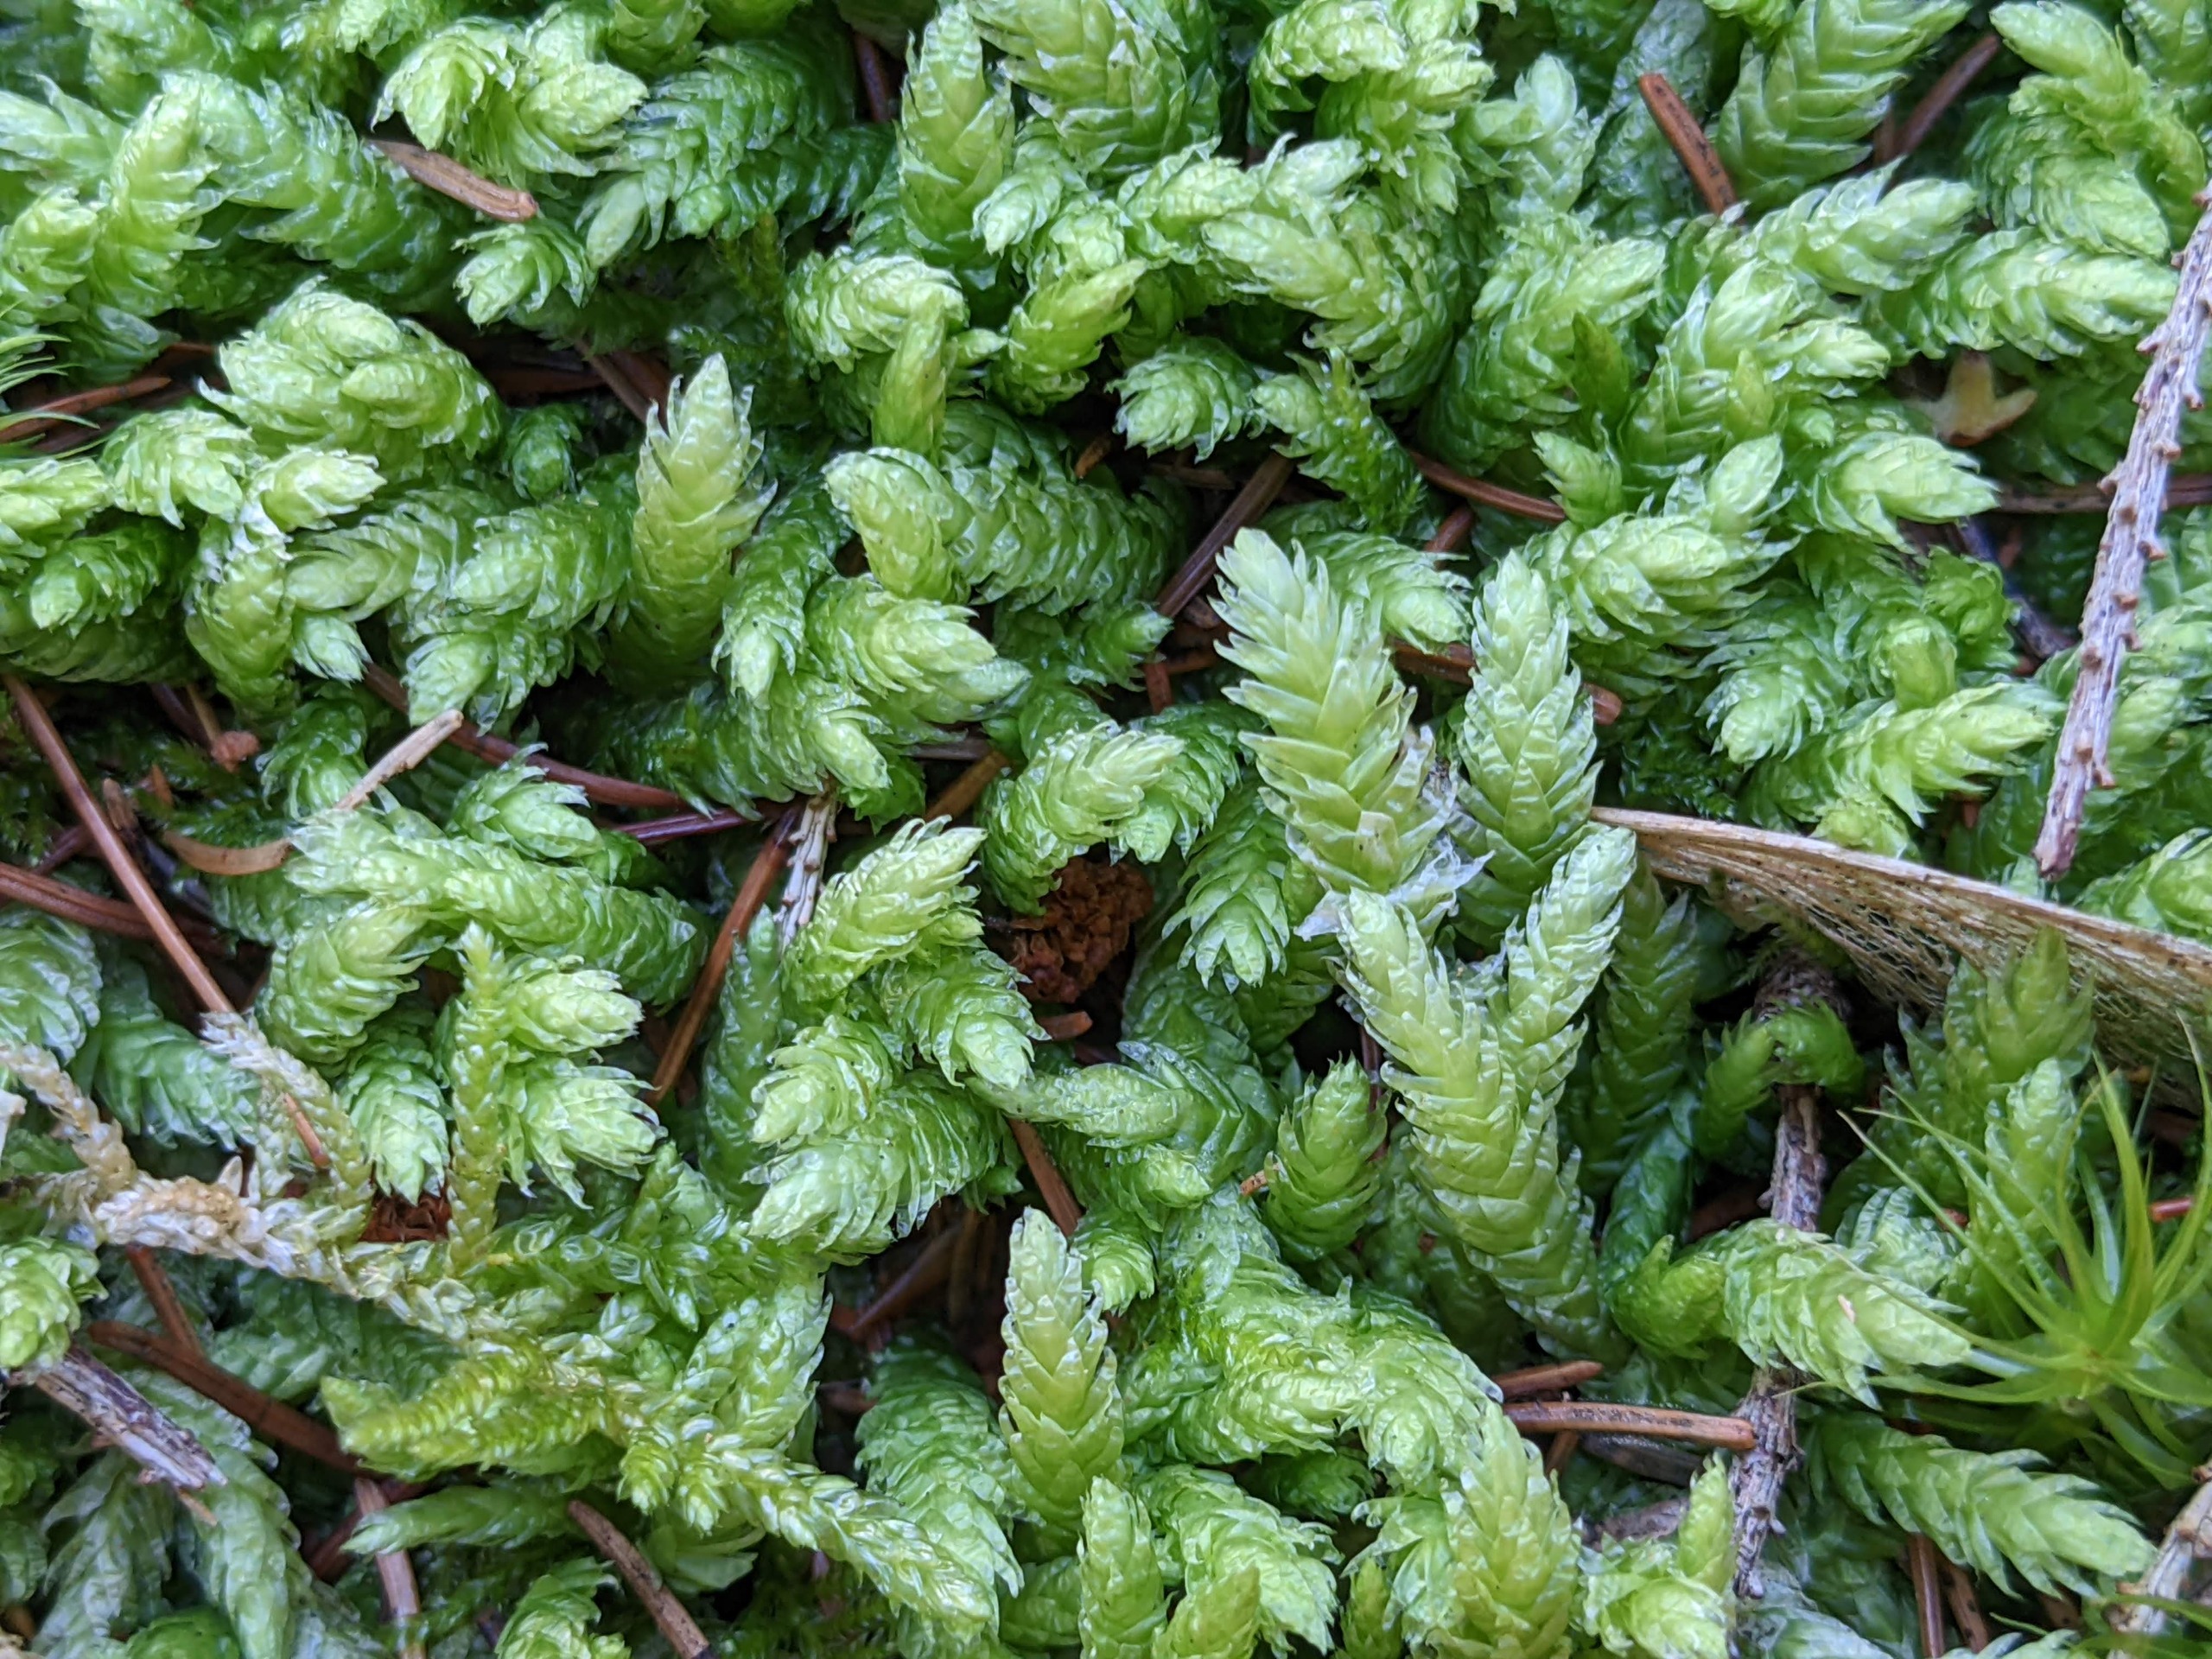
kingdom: Plantae
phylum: Bryophyta
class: Bryopsida
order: Hypnales
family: Plagiotheciaceae
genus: Plagiothecium
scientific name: Plagiothecium undulatum
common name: Bølget tæppemos
